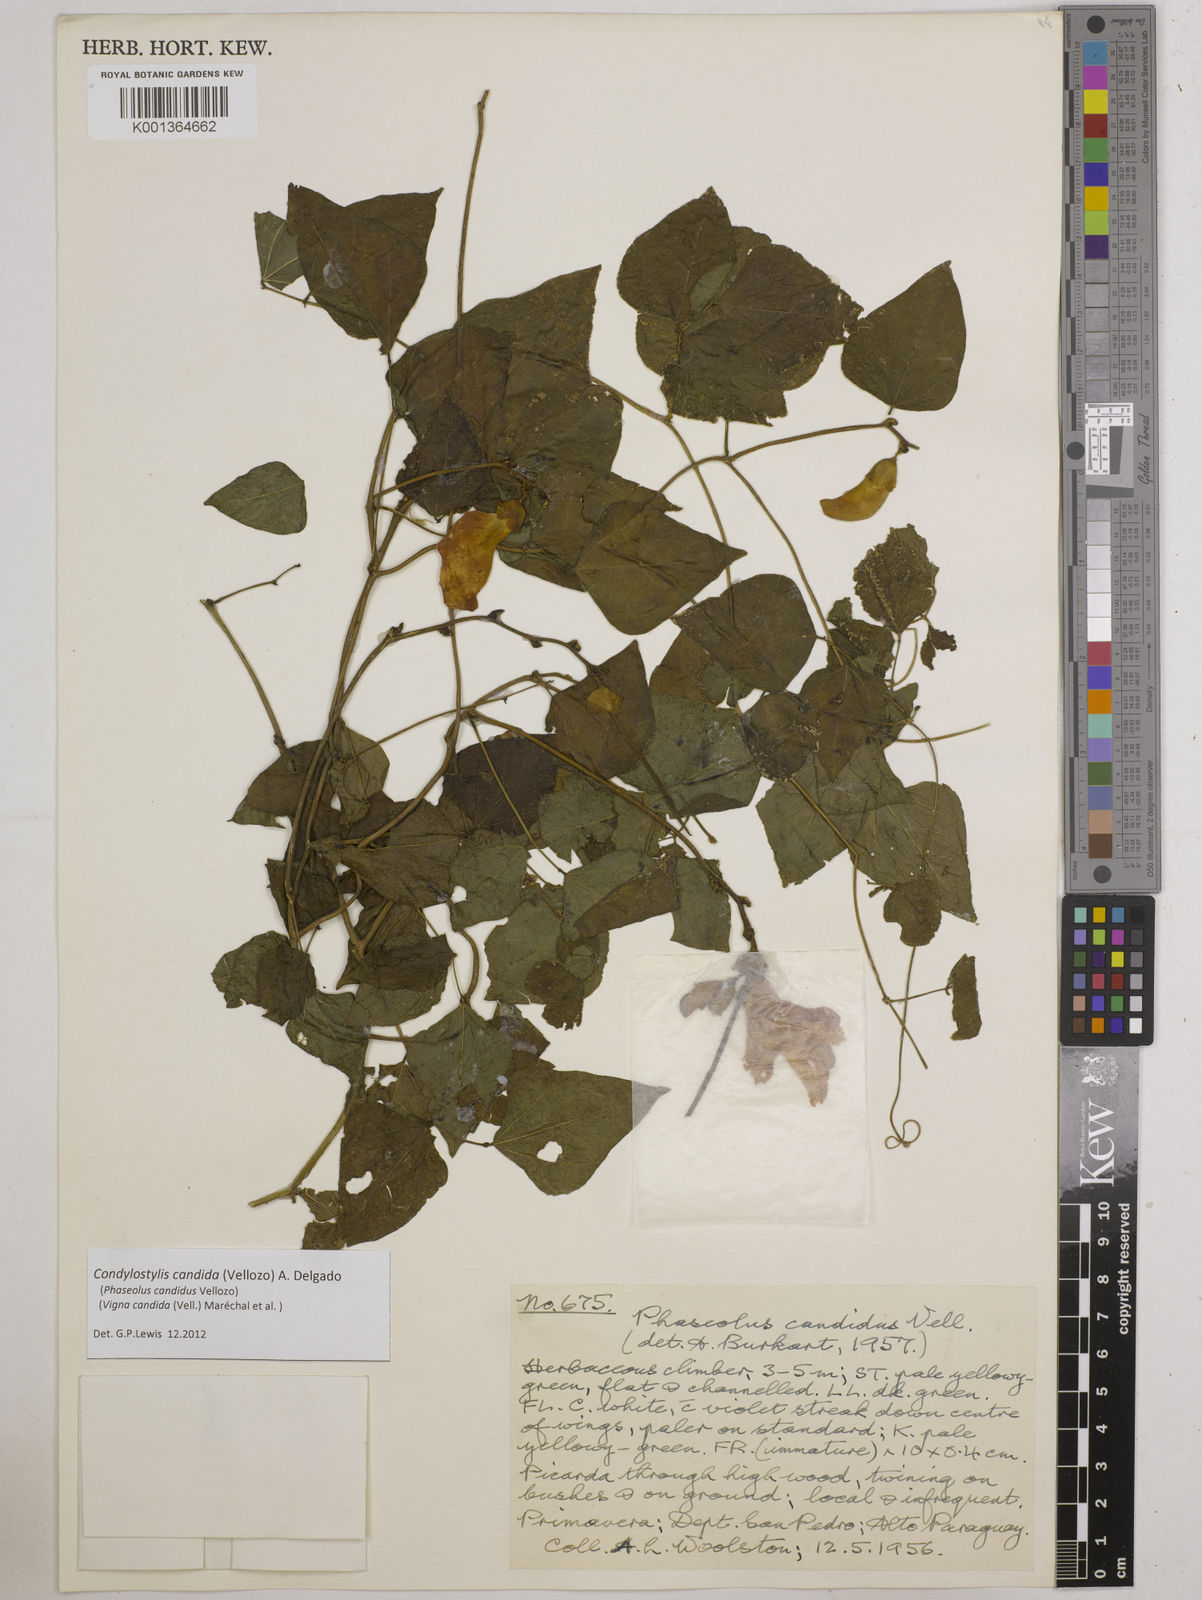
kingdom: Plantae
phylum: Tracheophyta
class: Magnoliopsida
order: Fabales
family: Fabaceae
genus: Condylostylis
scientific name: Condylostylis candida
